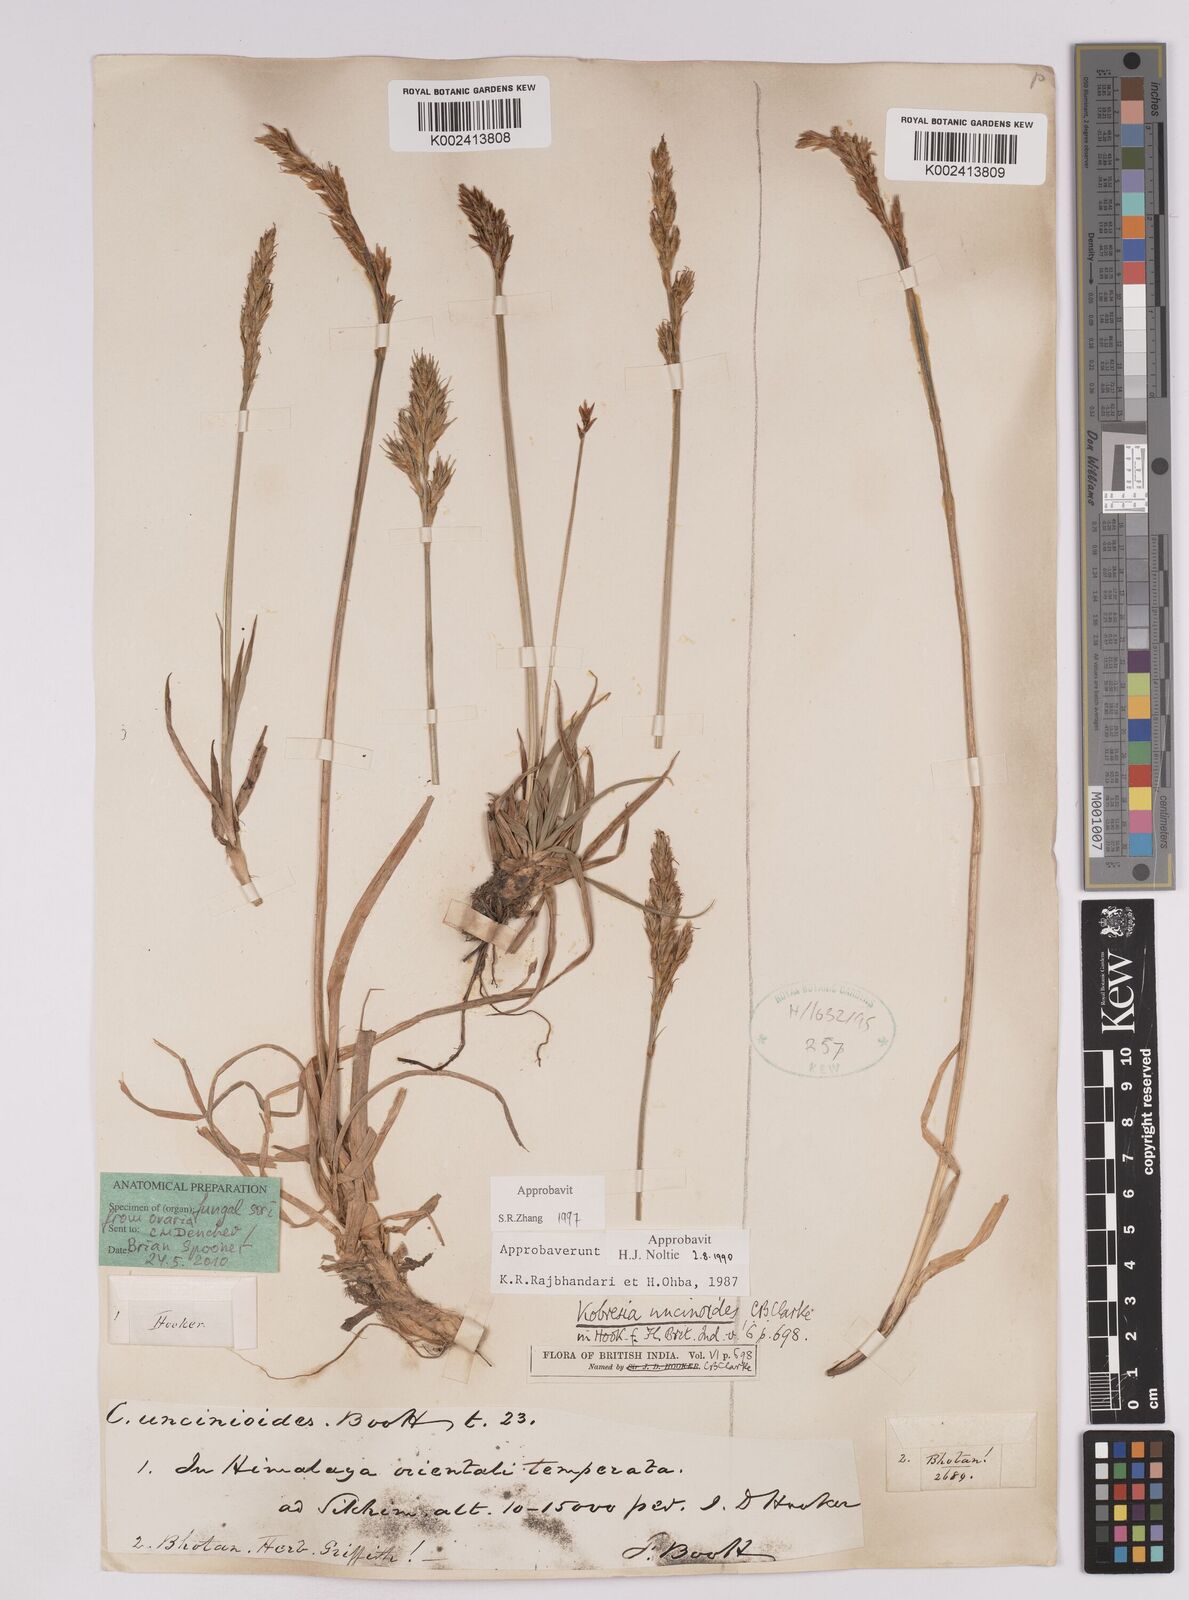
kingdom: Plantae
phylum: Tracheophyta
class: Liliopsida
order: Poales
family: Cyperaceae
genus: Carex
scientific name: Carex uncinioides
